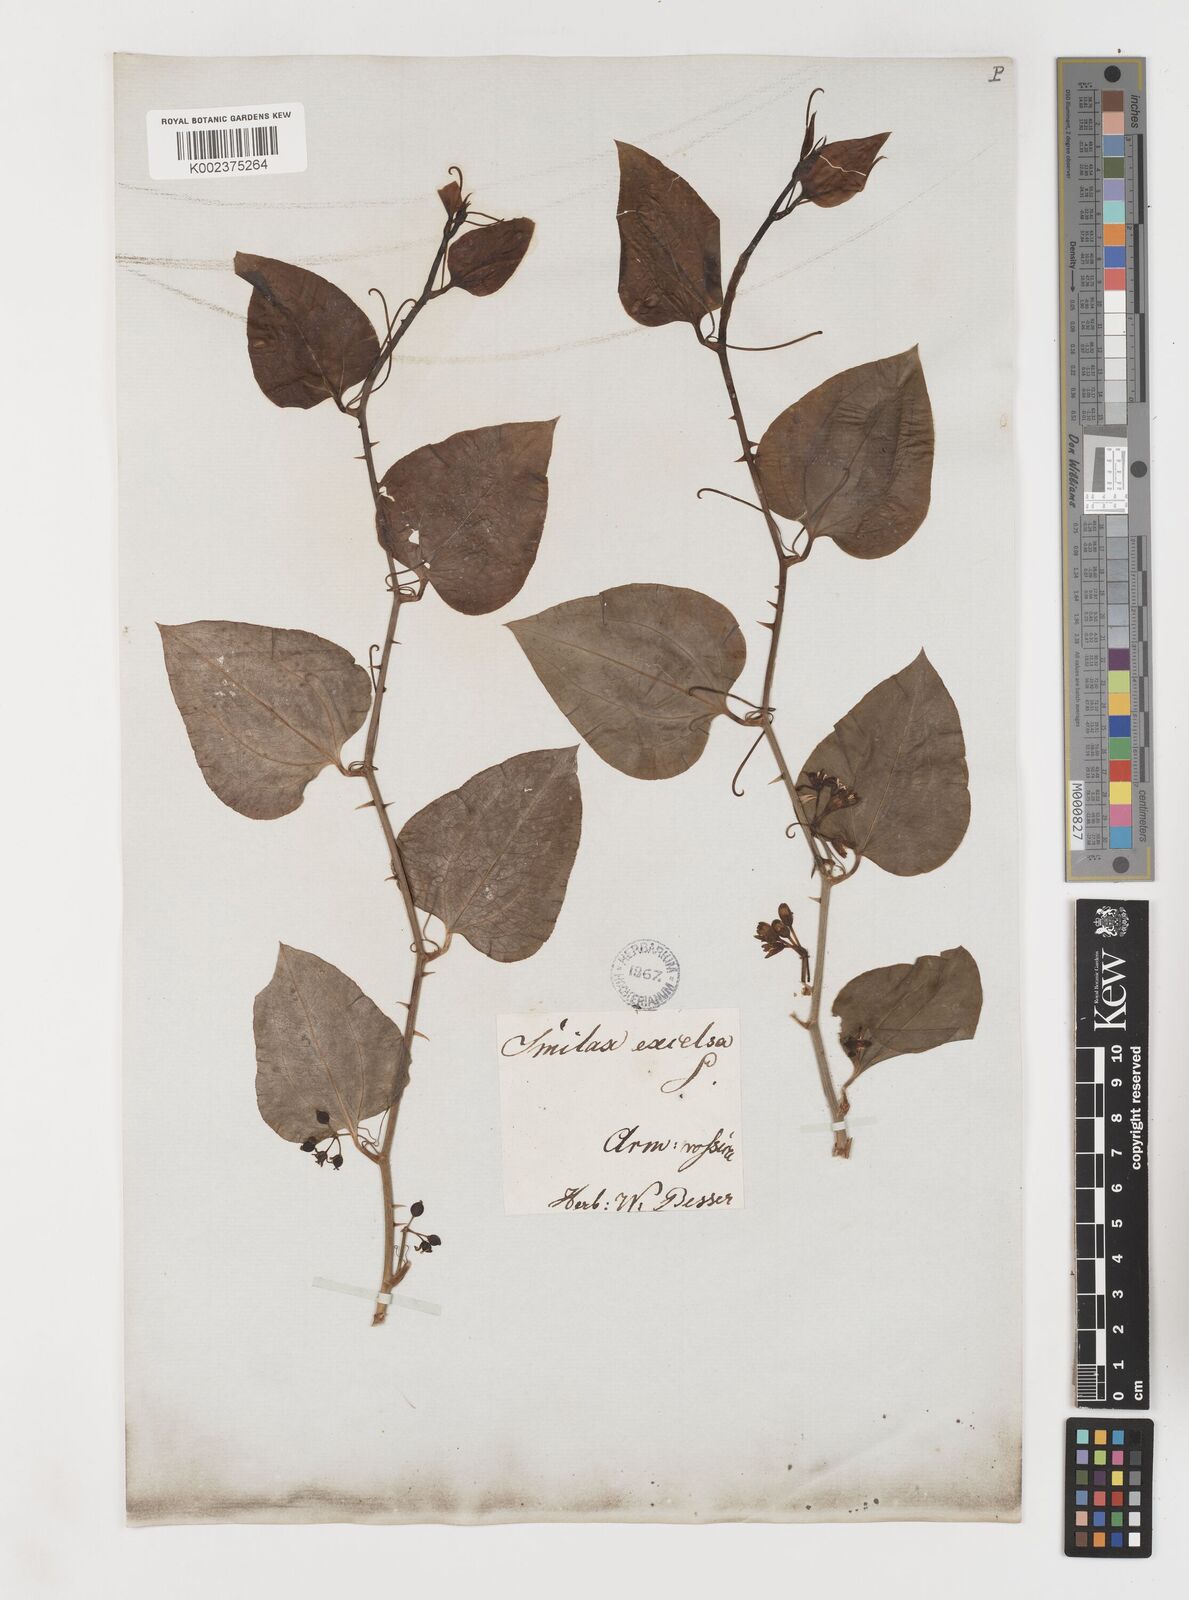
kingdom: Plantae
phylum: Tracheophyta
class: Liliopsida
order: Liliales
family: Smilacaceae
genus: Smilax
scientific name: Smilax excelsa
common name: Larger smilax
